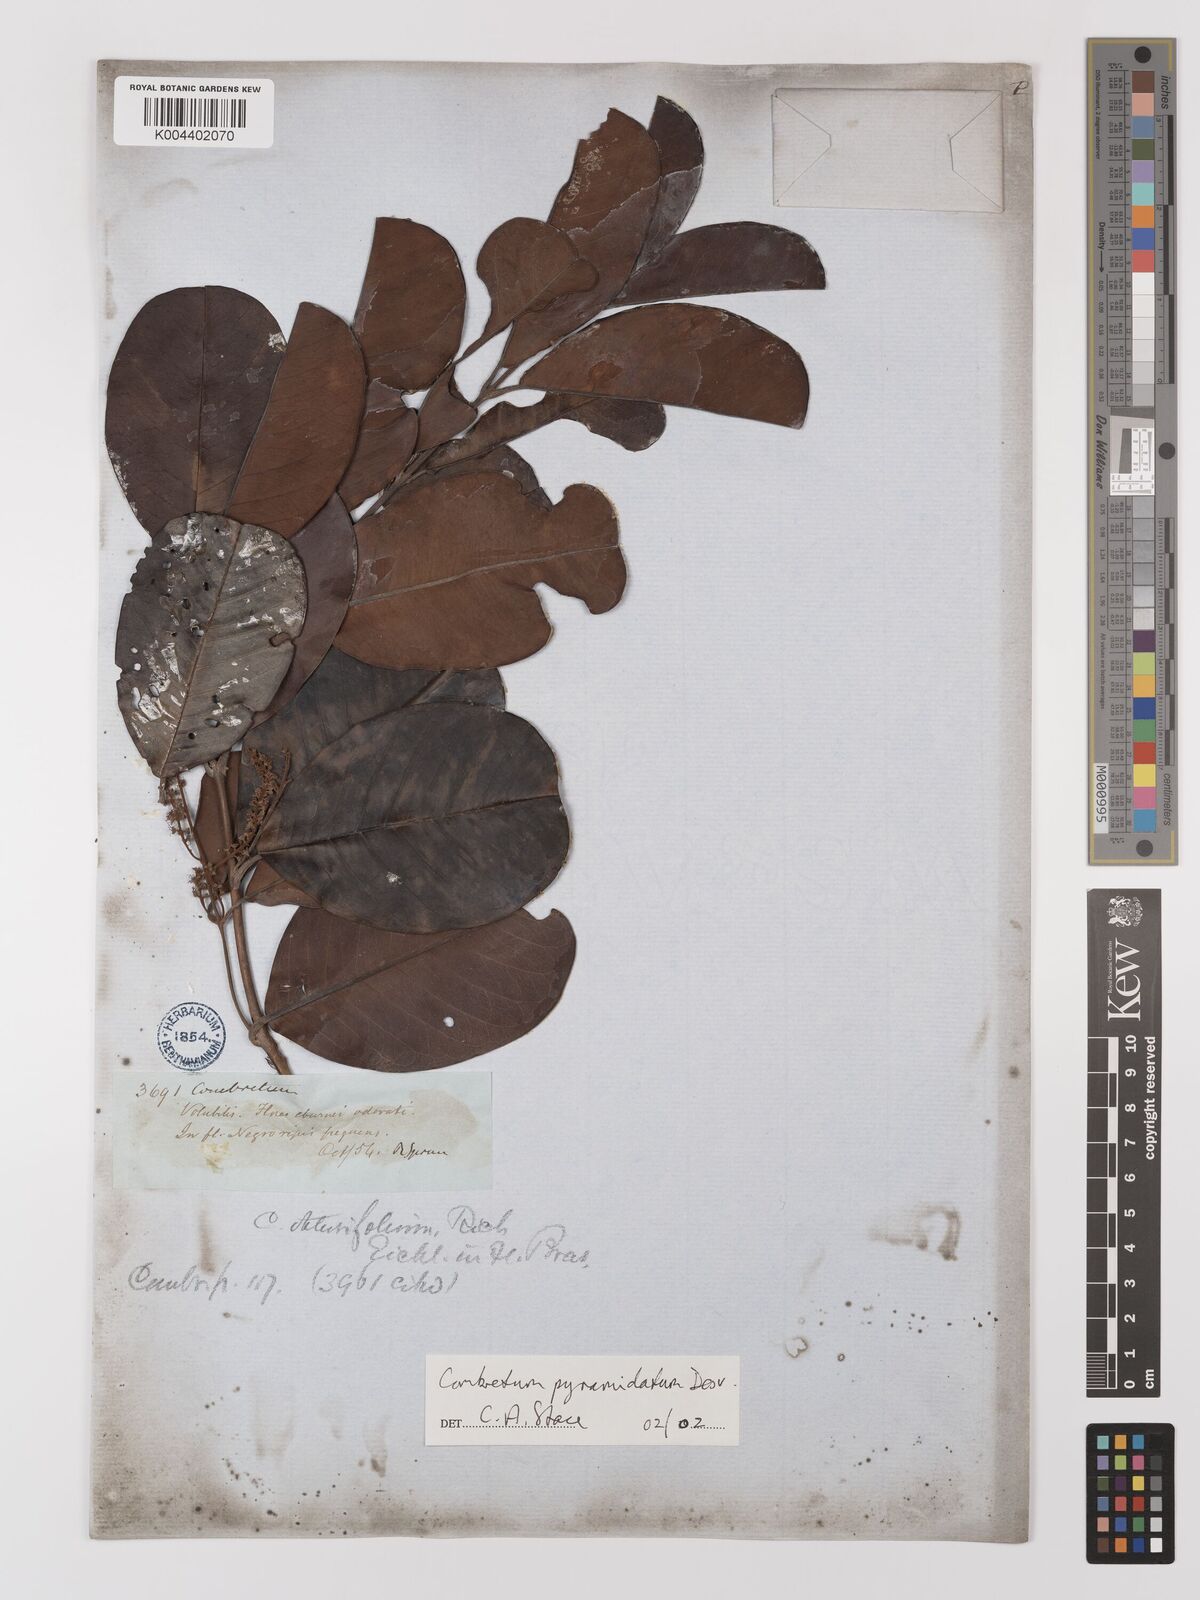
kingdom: Plantae
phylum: Tracheophyta
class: Magnoliopsida
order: Myrtales
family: Combretaceae
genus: Combretum
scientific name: Combretum pyramidatum
